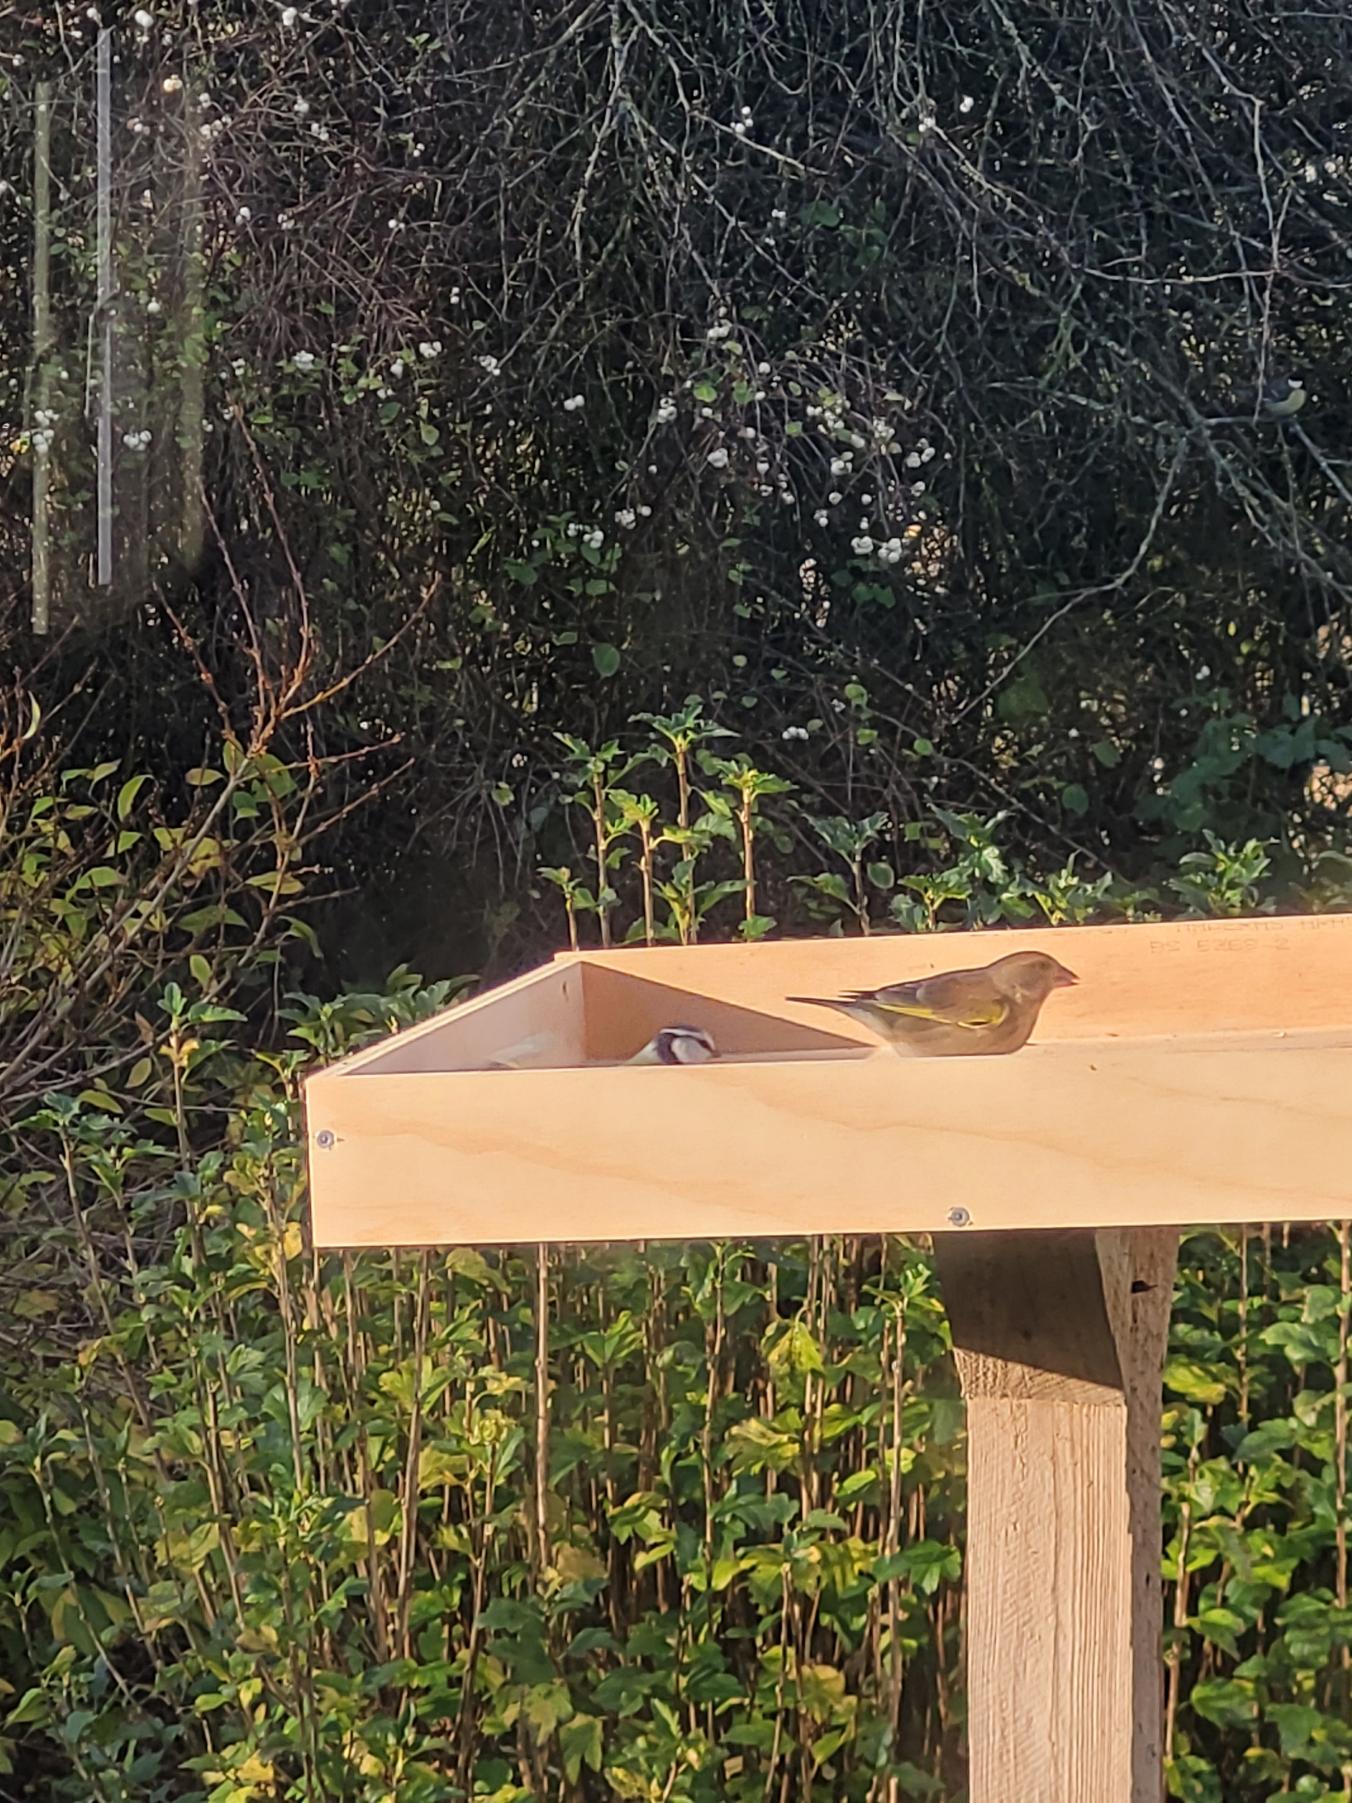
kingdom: Plantae
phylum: Tracheophyta
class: Liliopsida
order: Poales
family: Poaceae
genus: Chloris
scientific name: Chloris chloris
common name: Grønirisk
